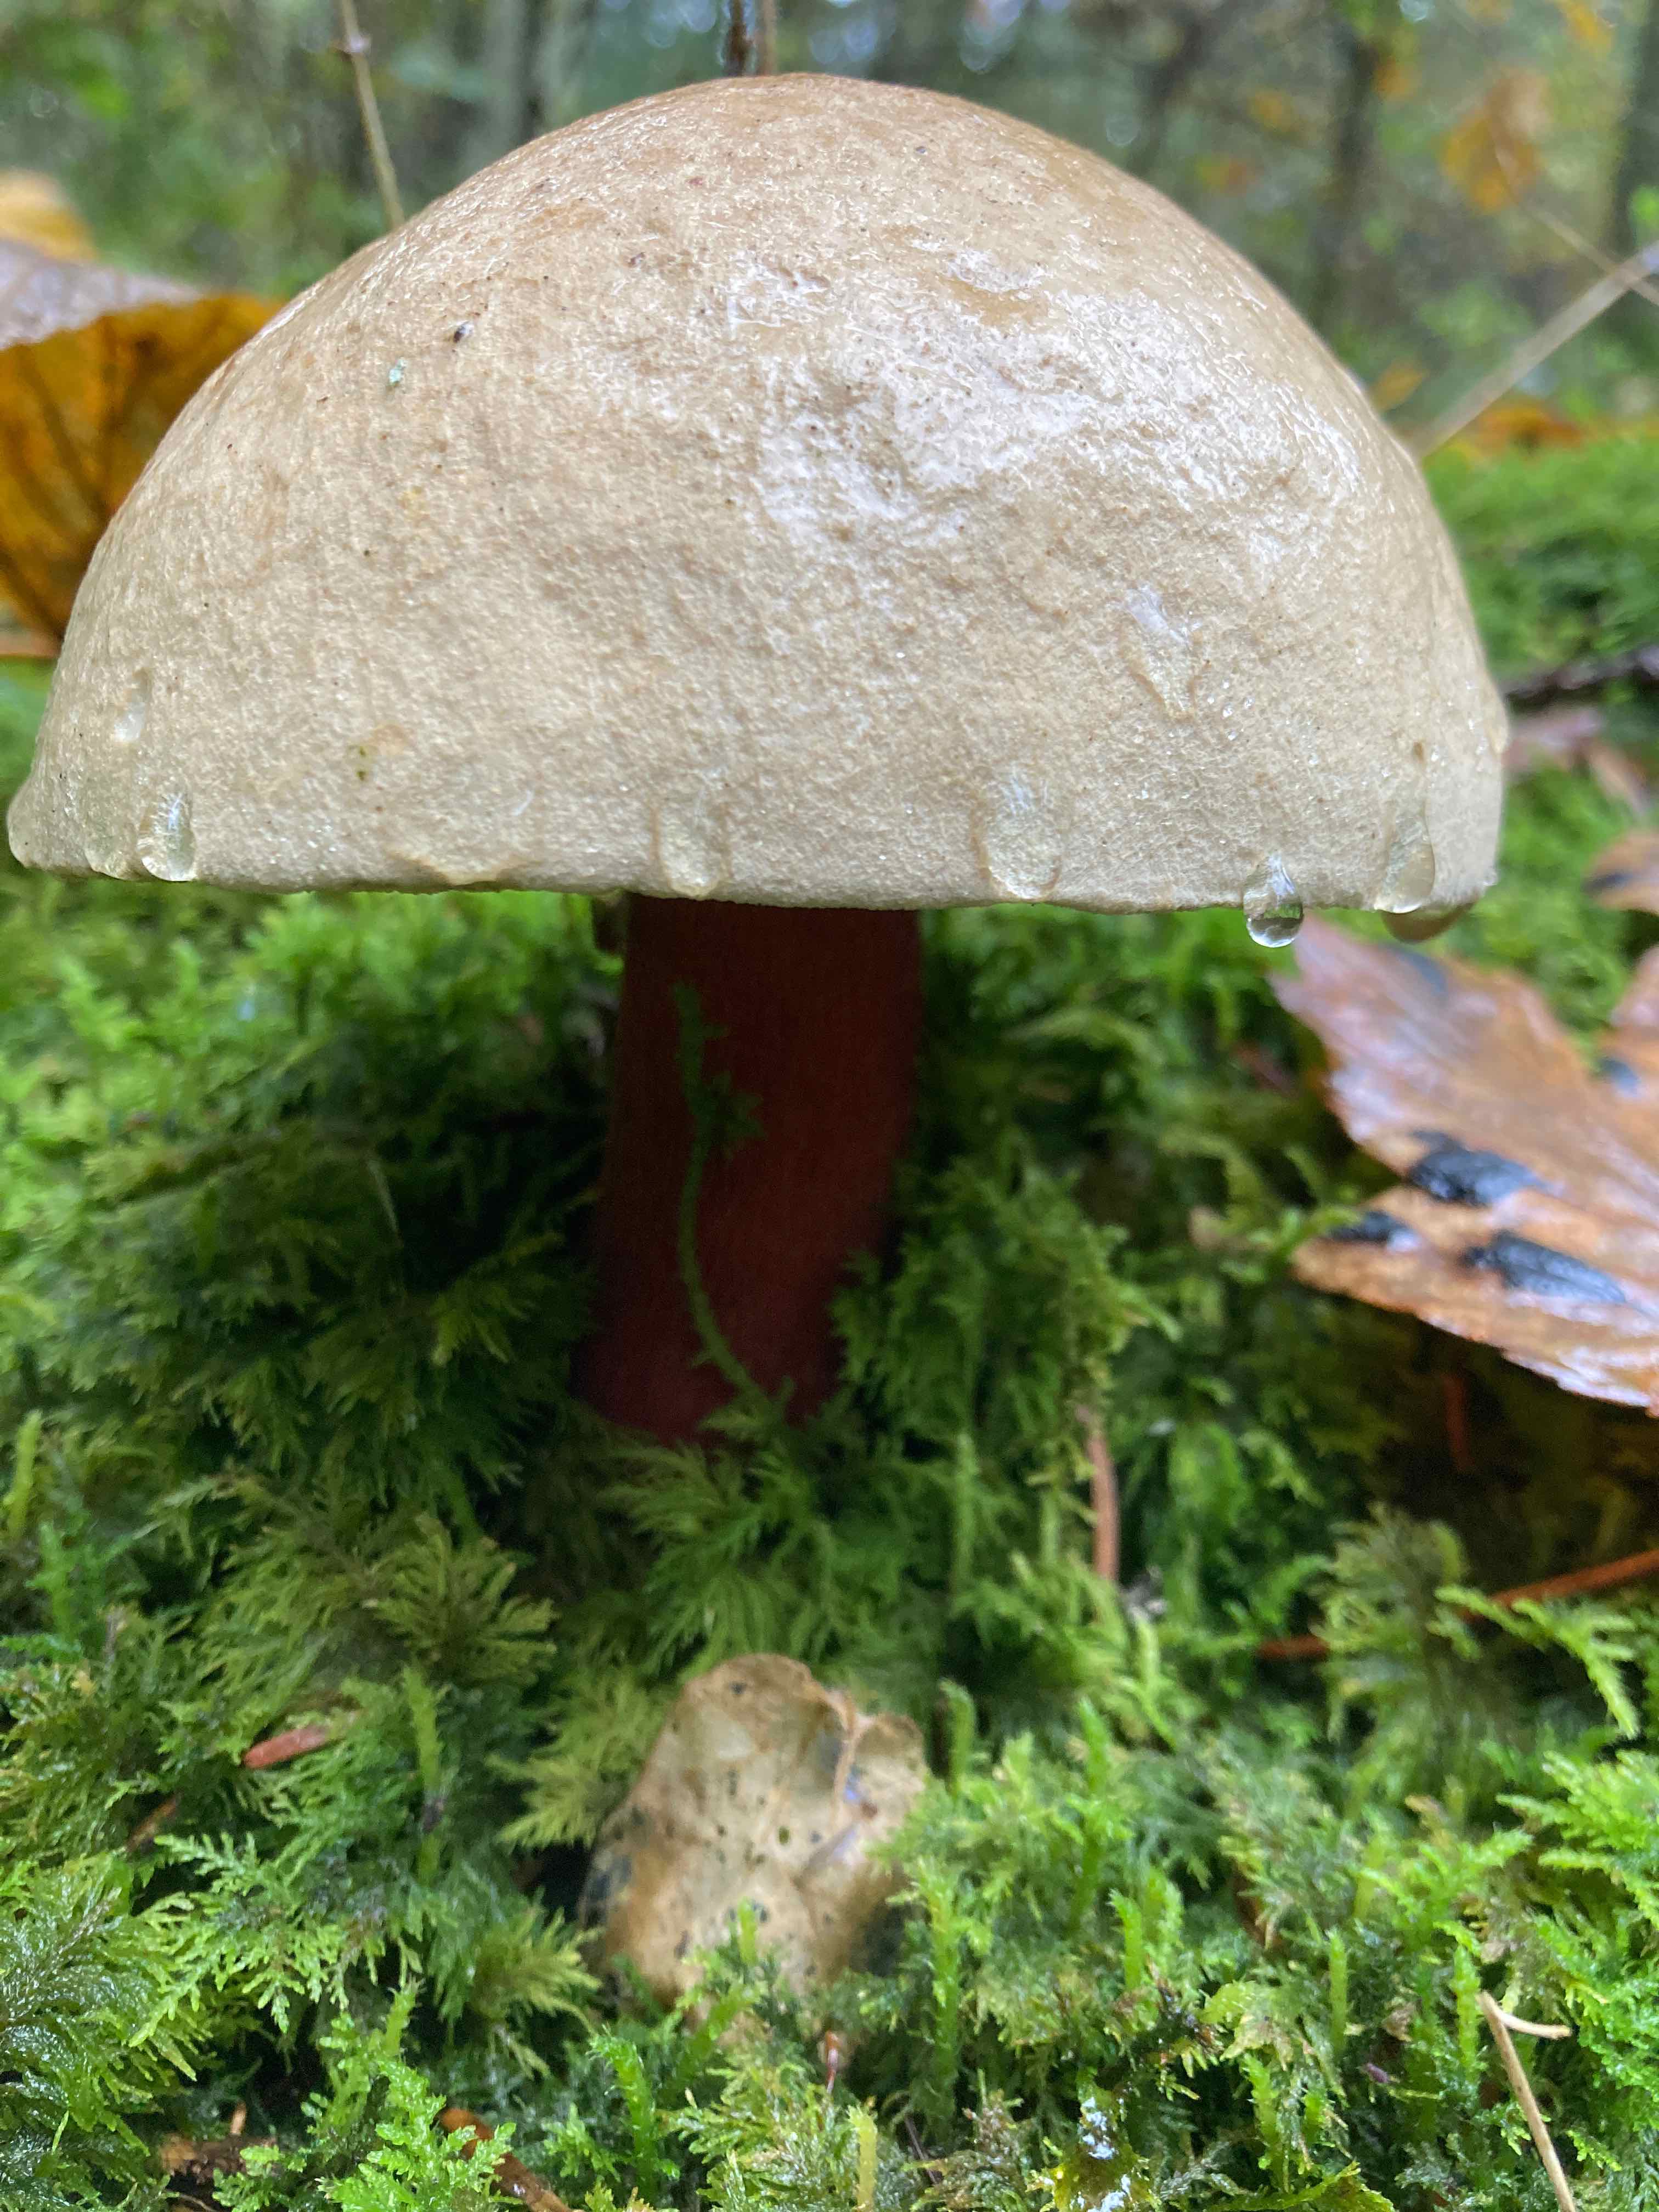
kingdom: Fungi
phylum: Basidiomycota
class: Agaricomycetes
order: Boletales
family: Boletaceae
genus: Caloboletus
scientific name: Caloboletus calopus
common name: skønfodet rørhat
